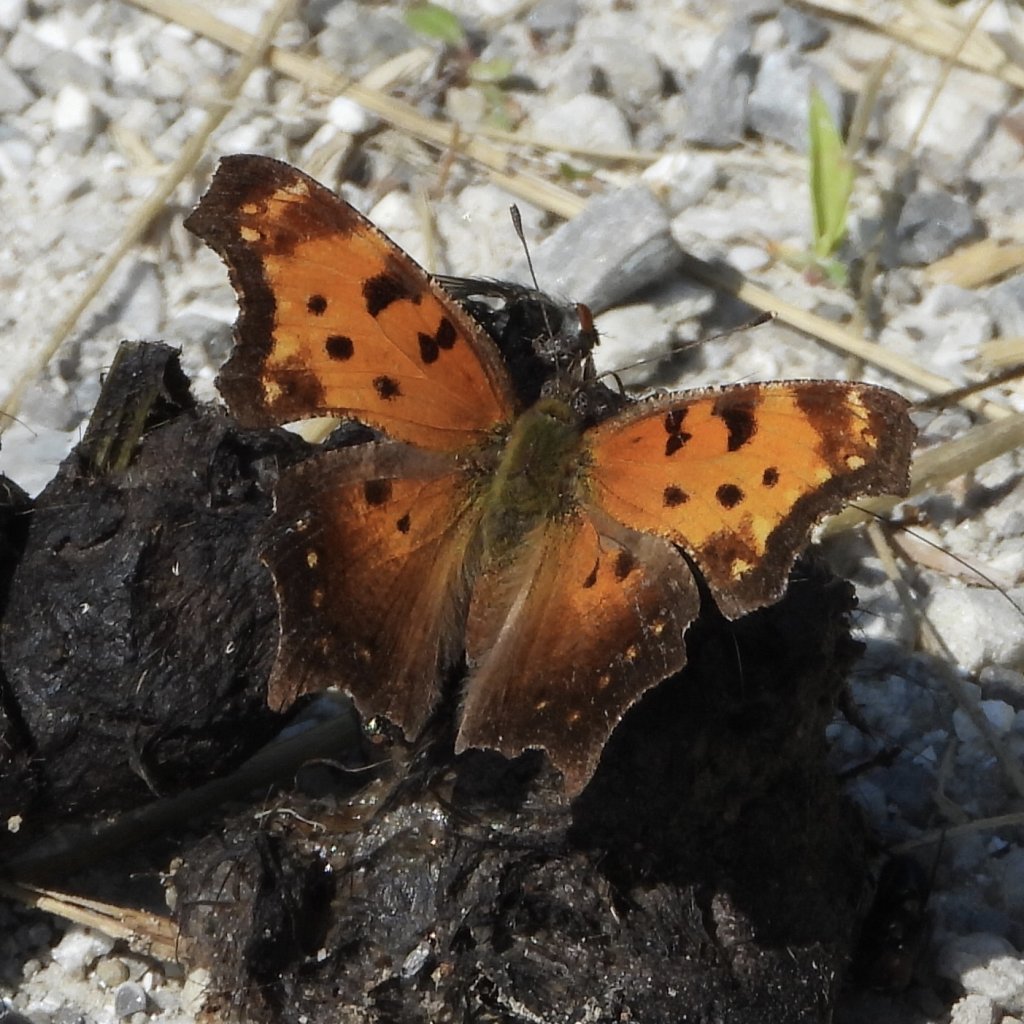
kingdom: Animalia
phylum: Arthropoda
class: Insecta
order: Lepidoptera
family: Nymphalidae
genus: Polygonia
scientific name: Polygonia progne
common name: Gray Comma
